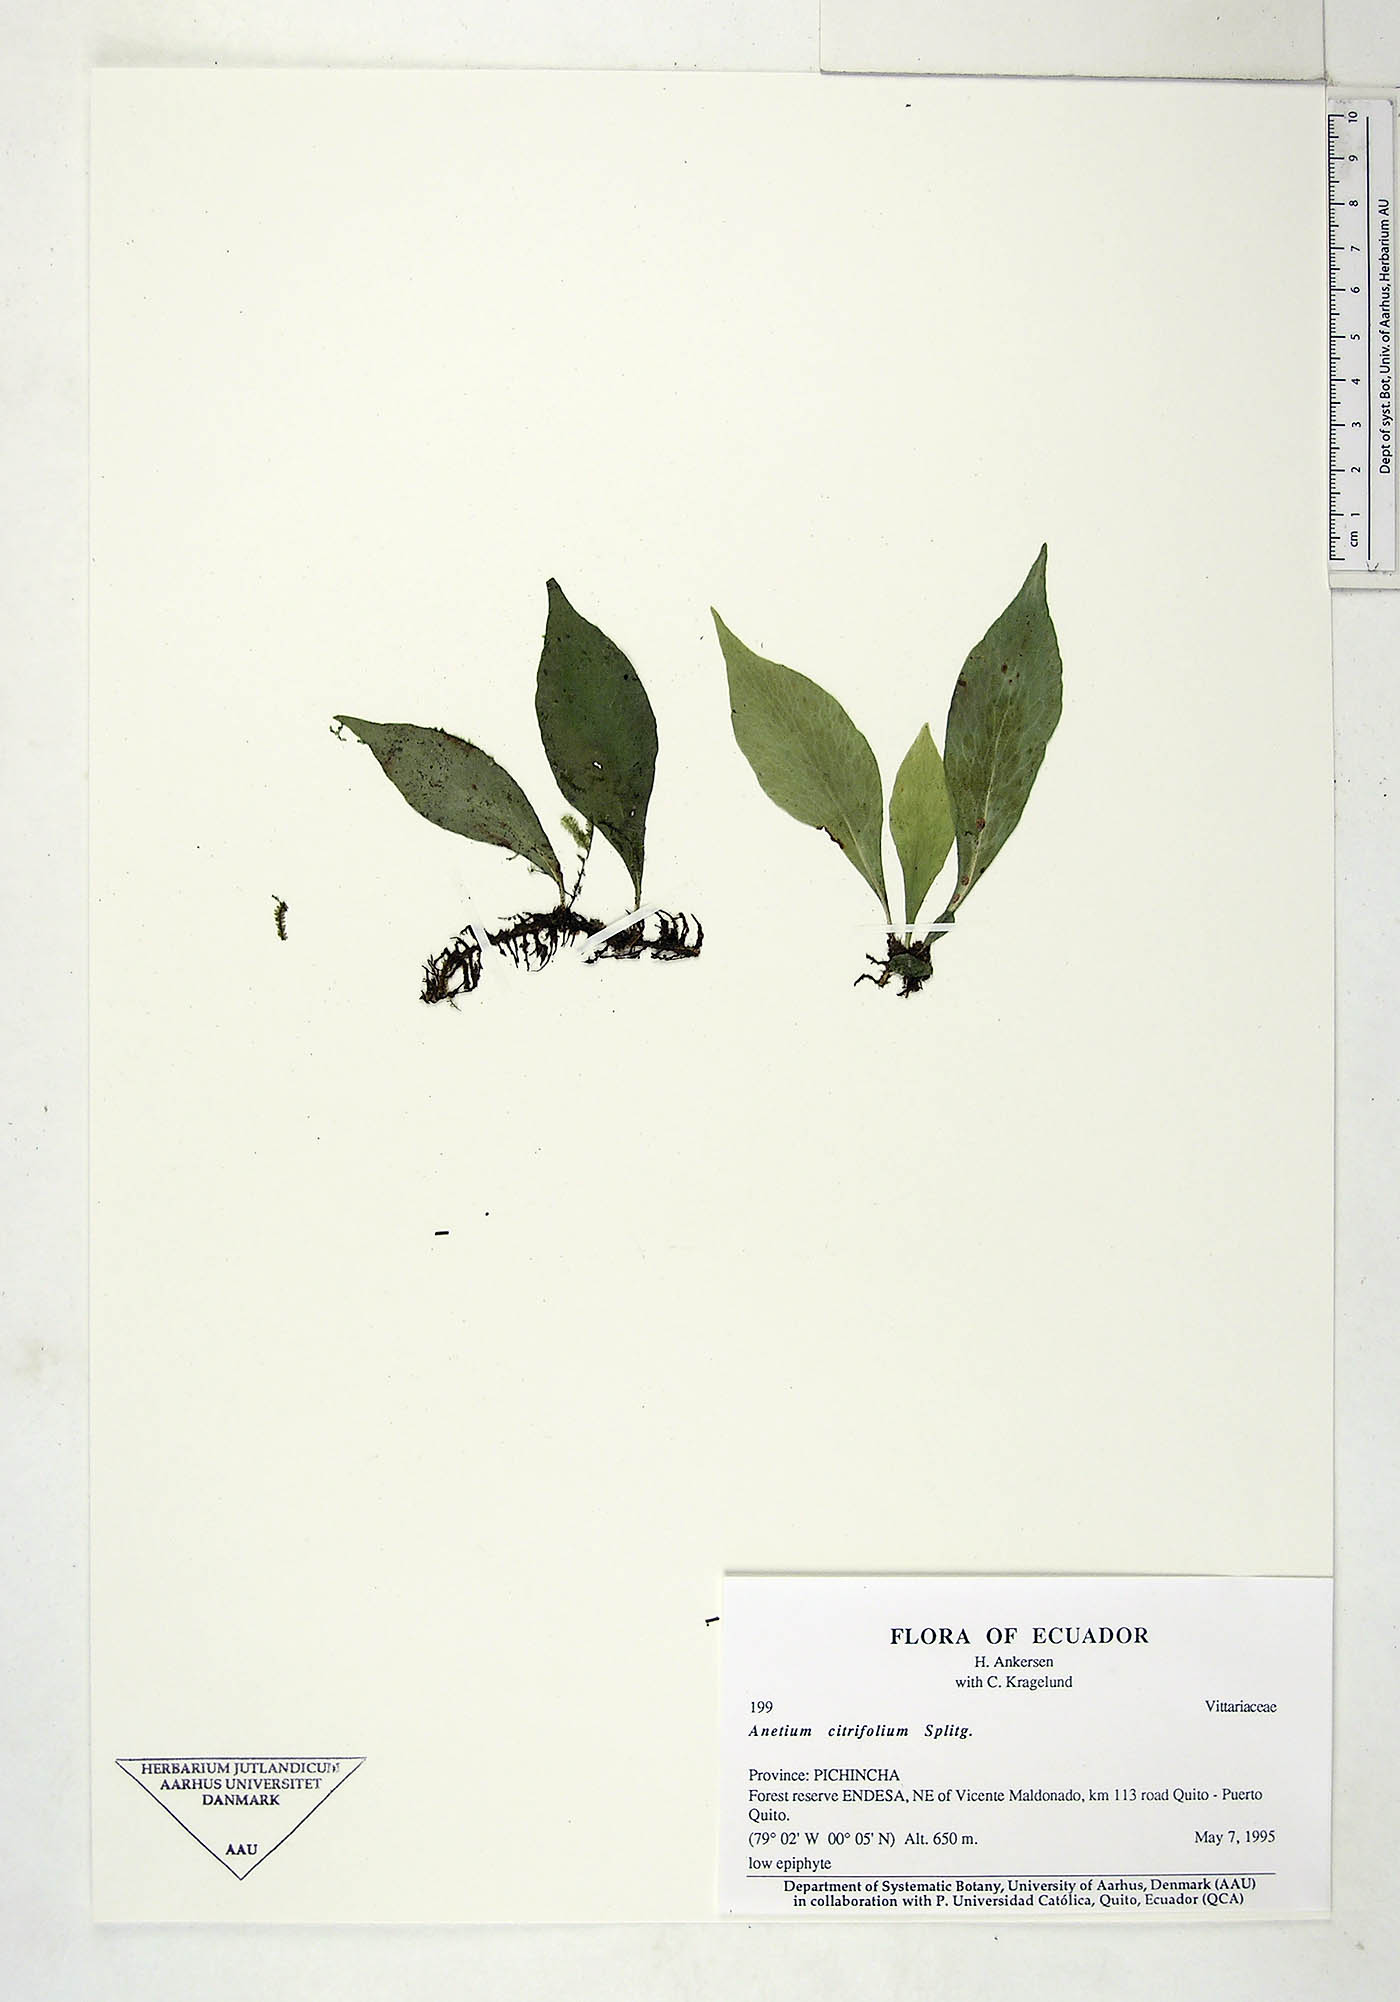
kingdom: Plantae
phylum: Tracheophyta
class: Polypodiopsida
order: Polypodiales
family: Pteridaceae
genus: Polytaenium
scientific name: Polytaenium citrifolium
